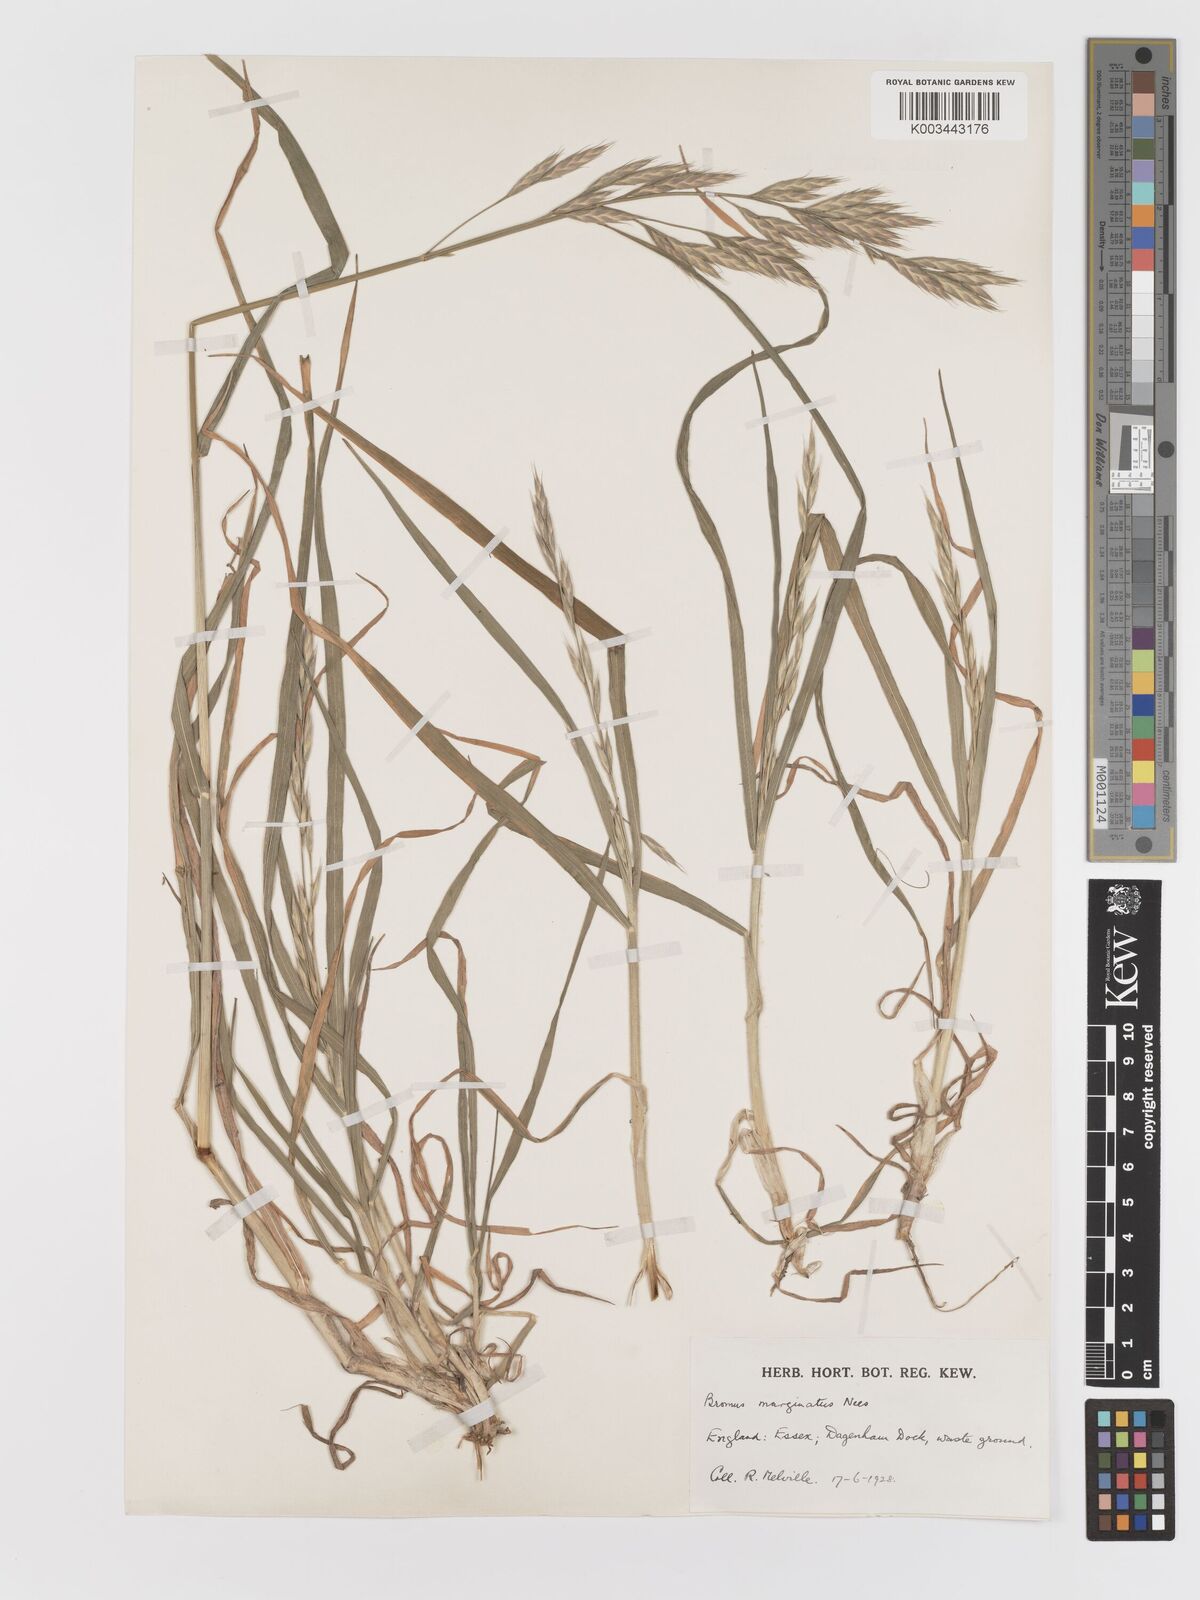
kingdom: Plantae
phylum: Tracheophyta
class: Liliopsida
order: Poales
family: Poaceae
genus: Bromus
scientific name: Bromus marginatus
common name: Western brome
